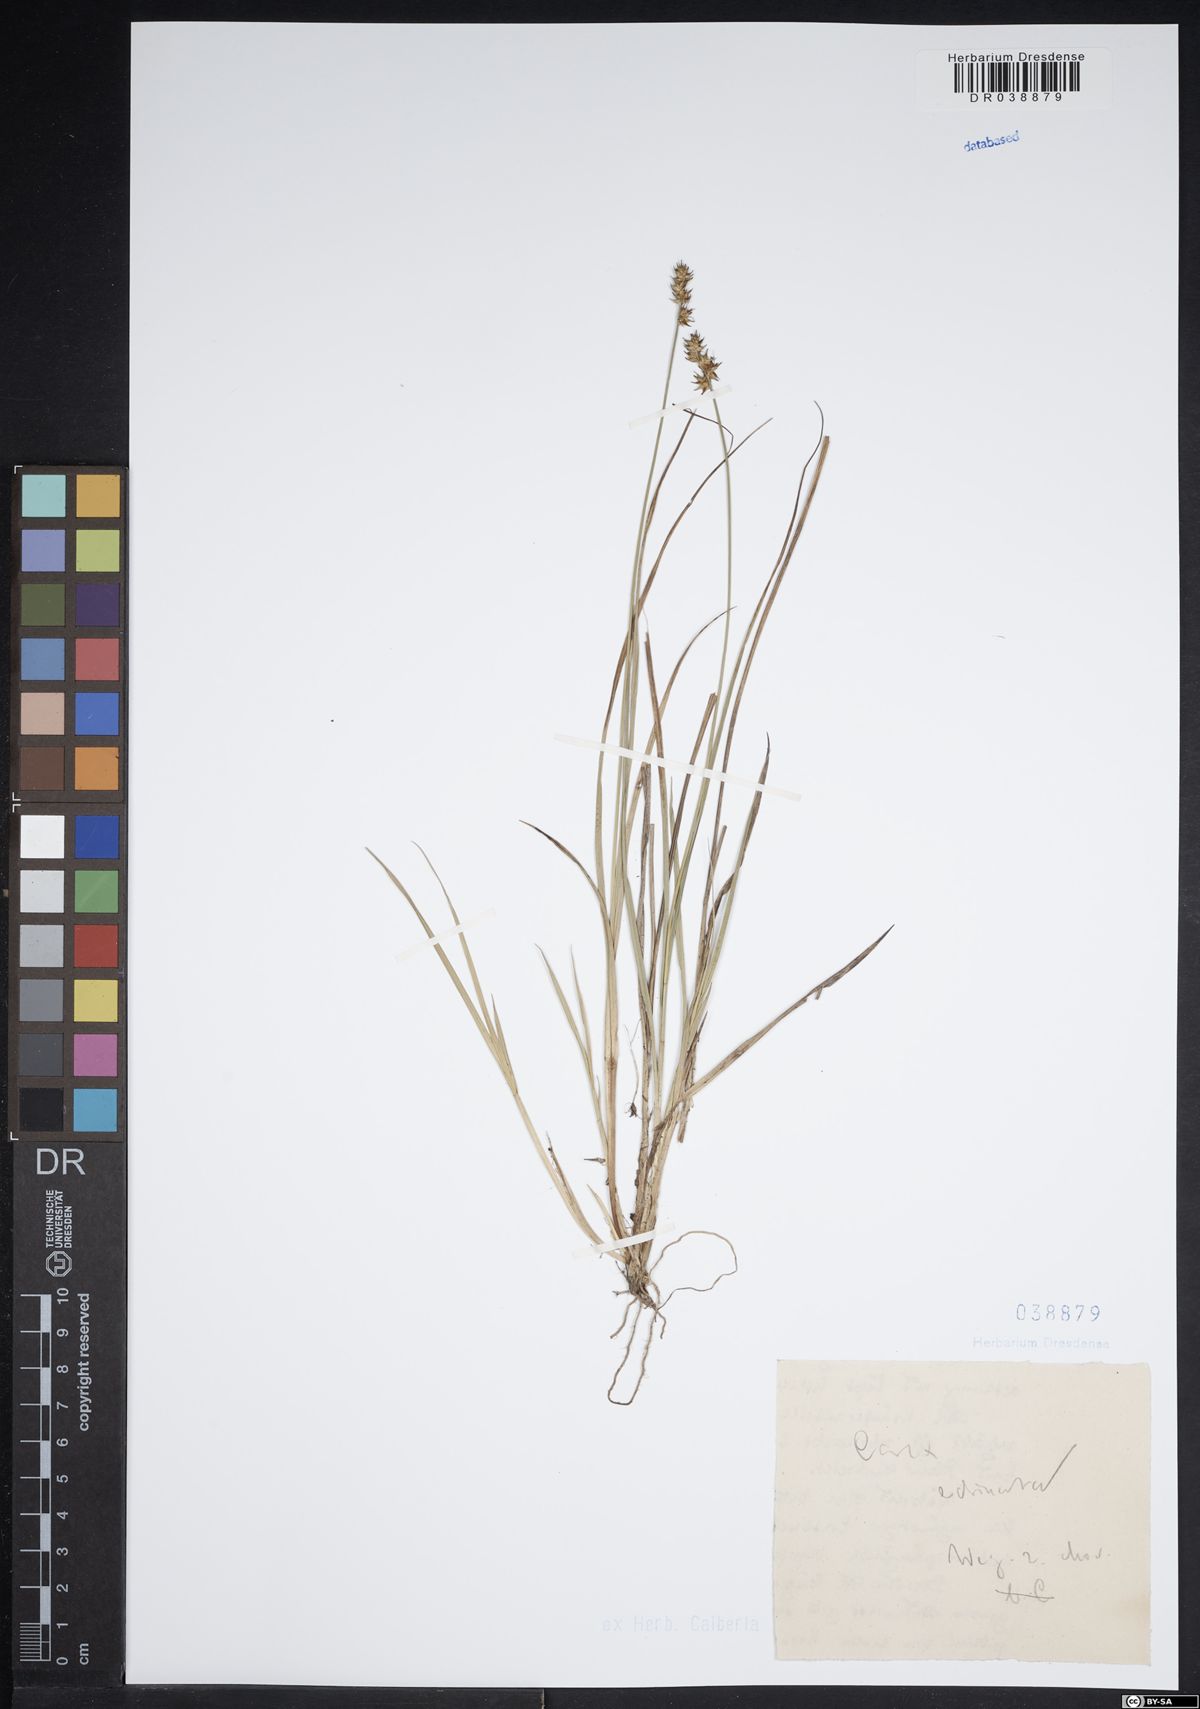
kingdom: Plantae
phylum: Tracheophyta
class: Liliopsida
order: Poales
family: Cyperaceae
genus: Carex
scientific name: Carex echinata
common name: Star sedge
